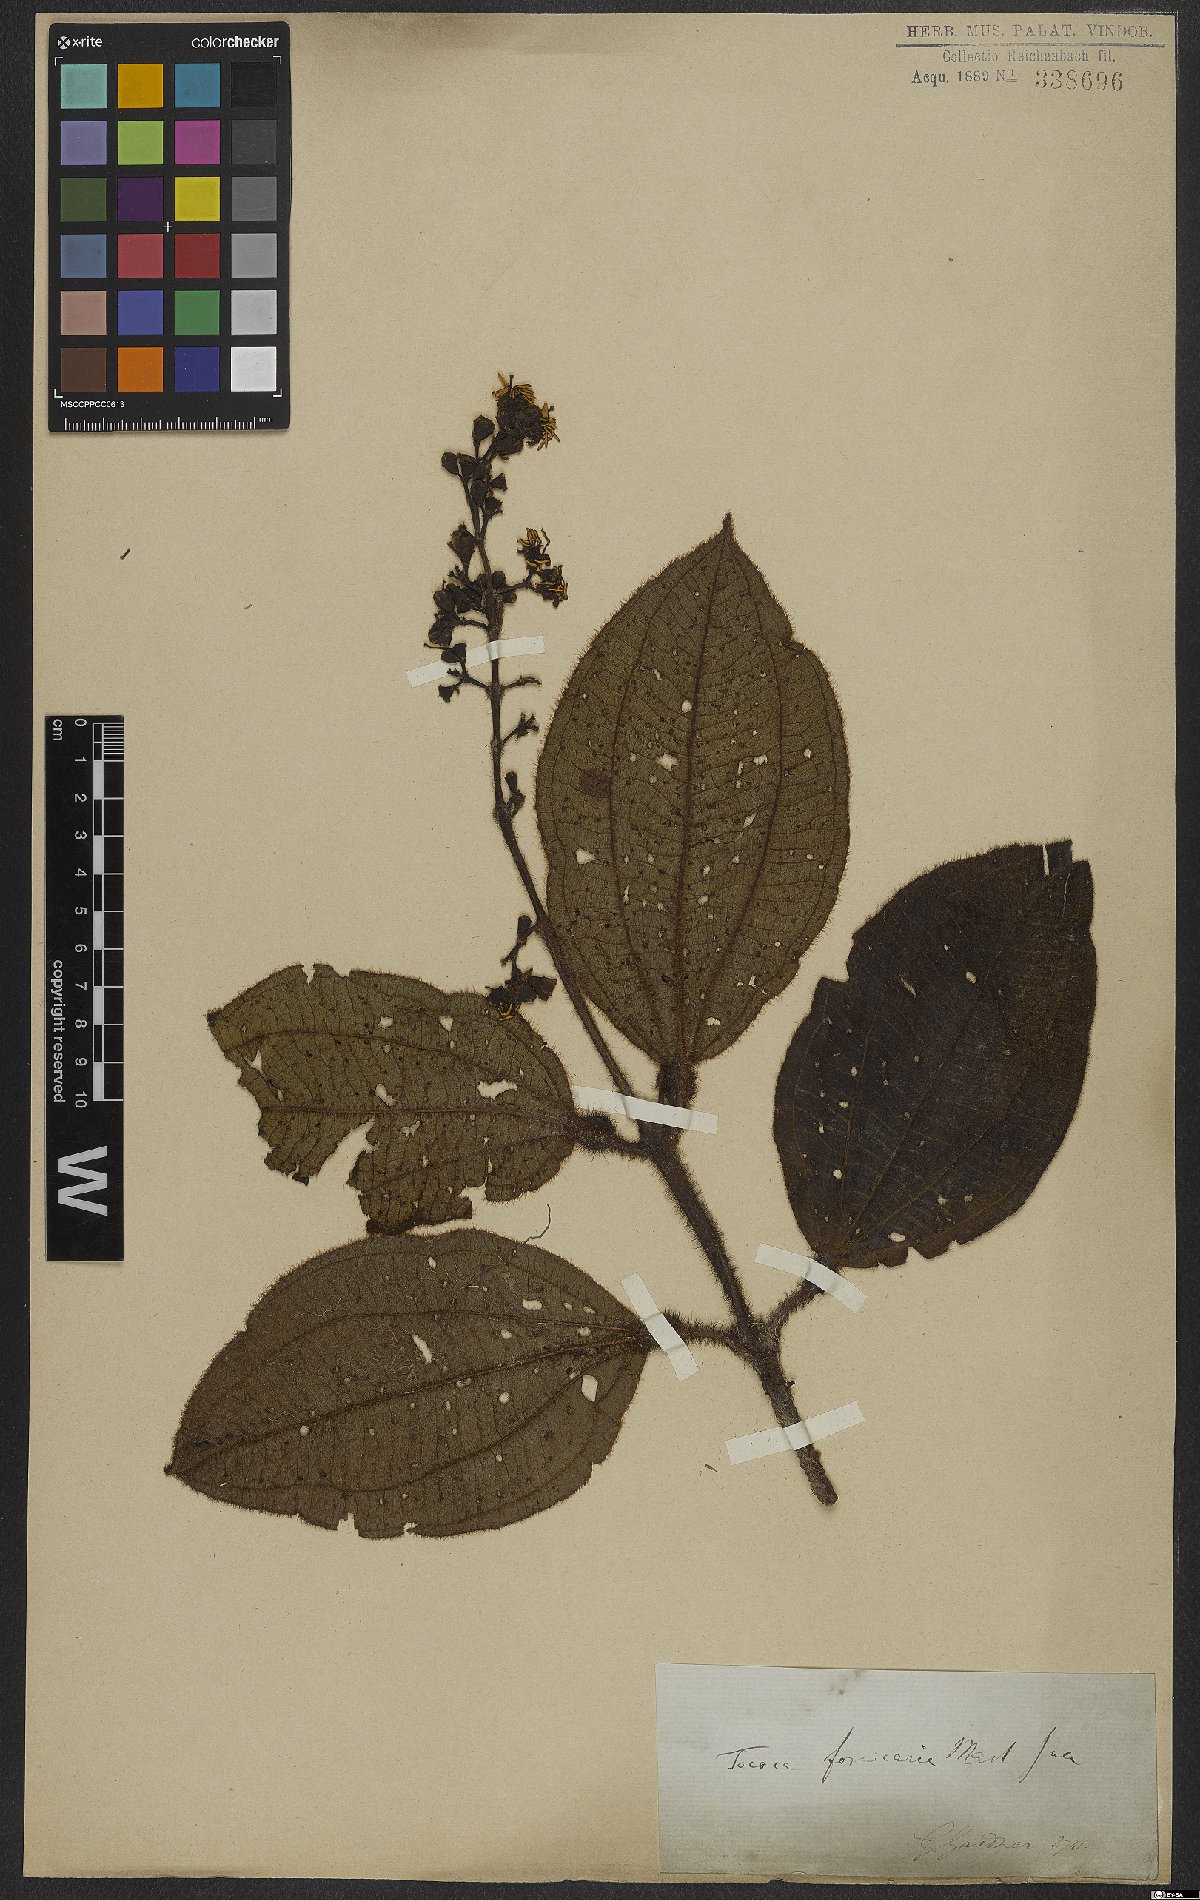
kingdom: Plantae
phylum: Tracheophyta
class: Magnoliopsida
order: Myrtales
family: Melastomataceae
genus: Miconia
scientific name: Miconia tococa
